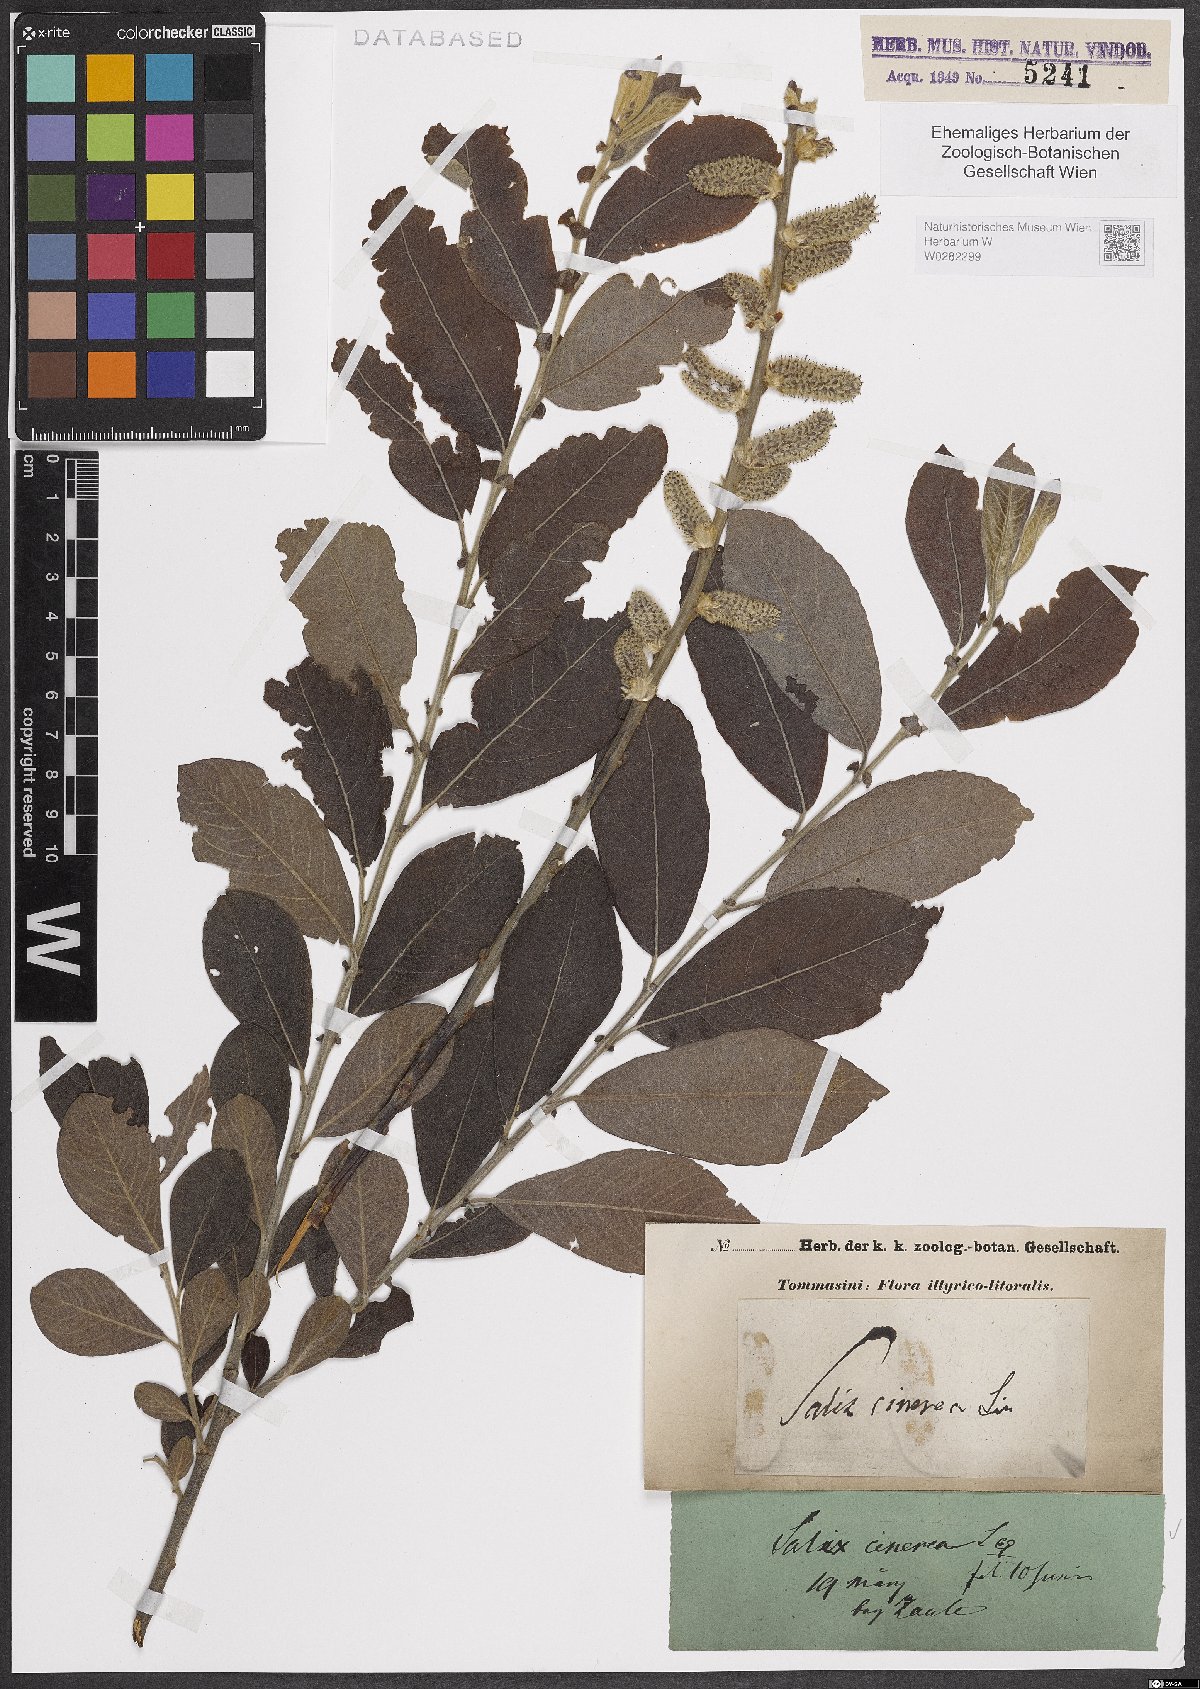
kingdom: Plantae
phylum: Tracheophyta
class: Magnoliopsida
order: Malpighiales
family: Salicaceae
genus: Salix
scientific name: Salix cinerea
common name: Common sallow
